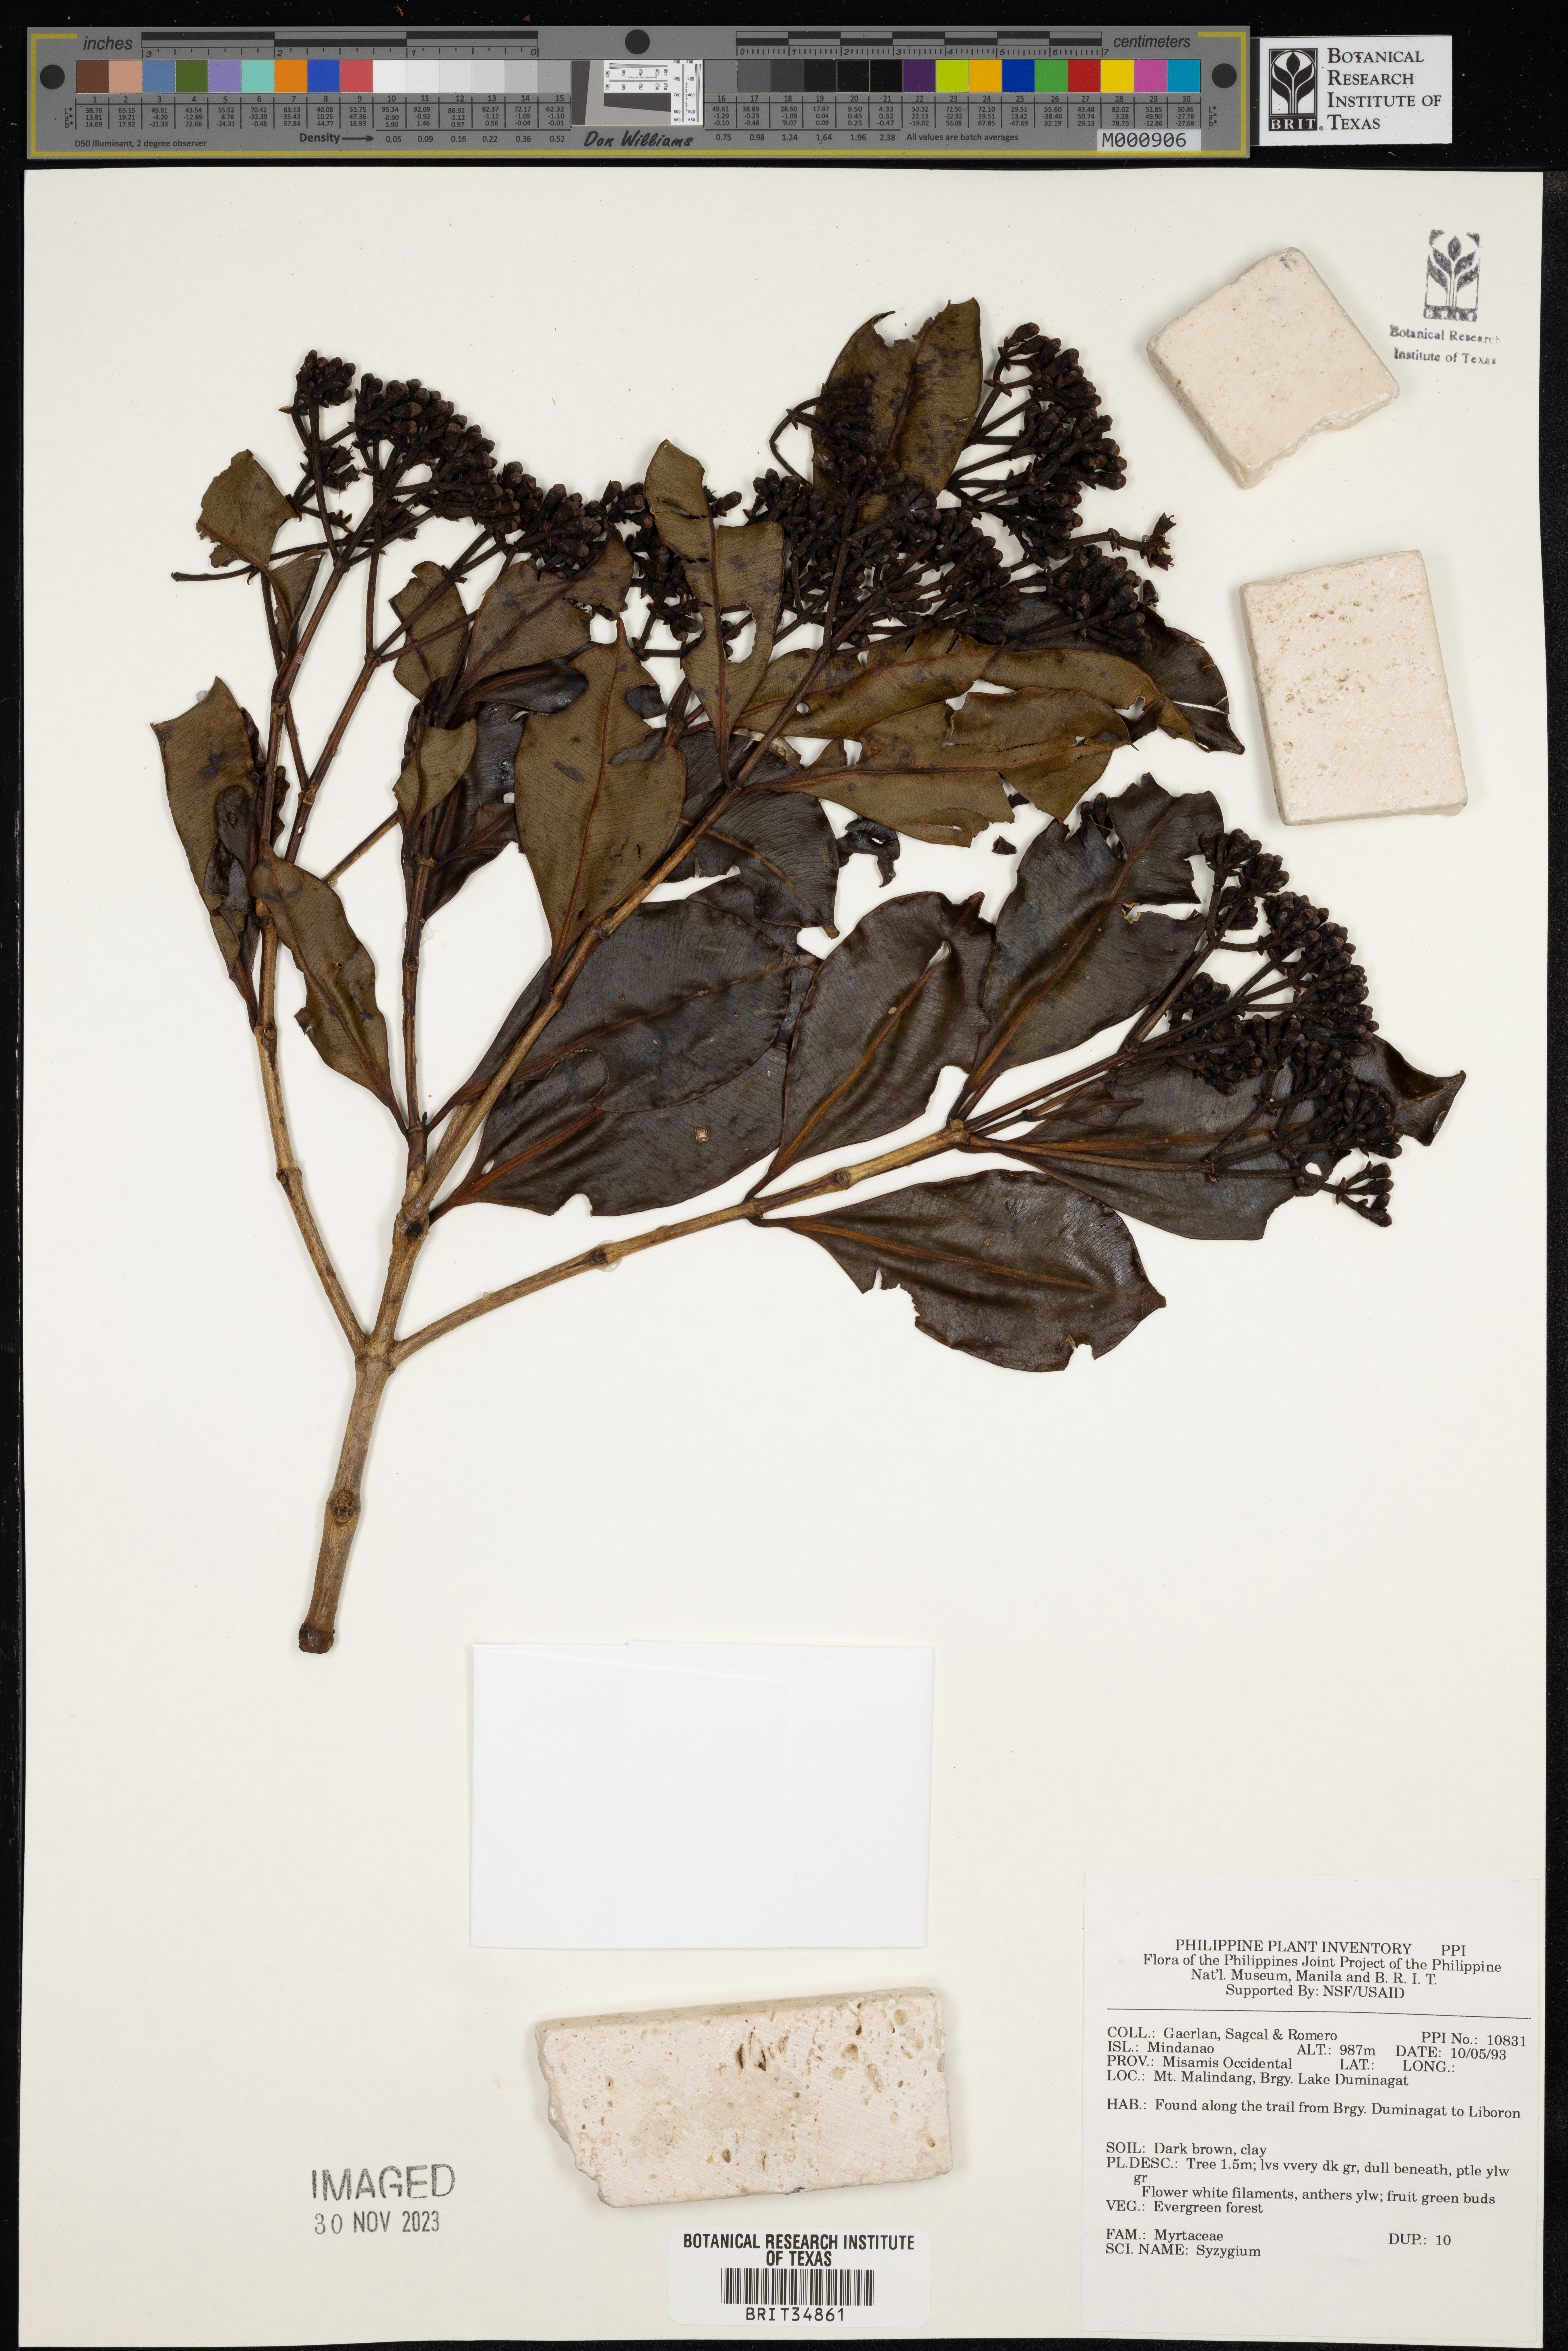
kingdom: Plantae
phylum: Tracheophyta
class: Magnoliopsida
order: Myrtales
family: Myrtaceae
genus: Syzygium
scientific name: Syzygium
